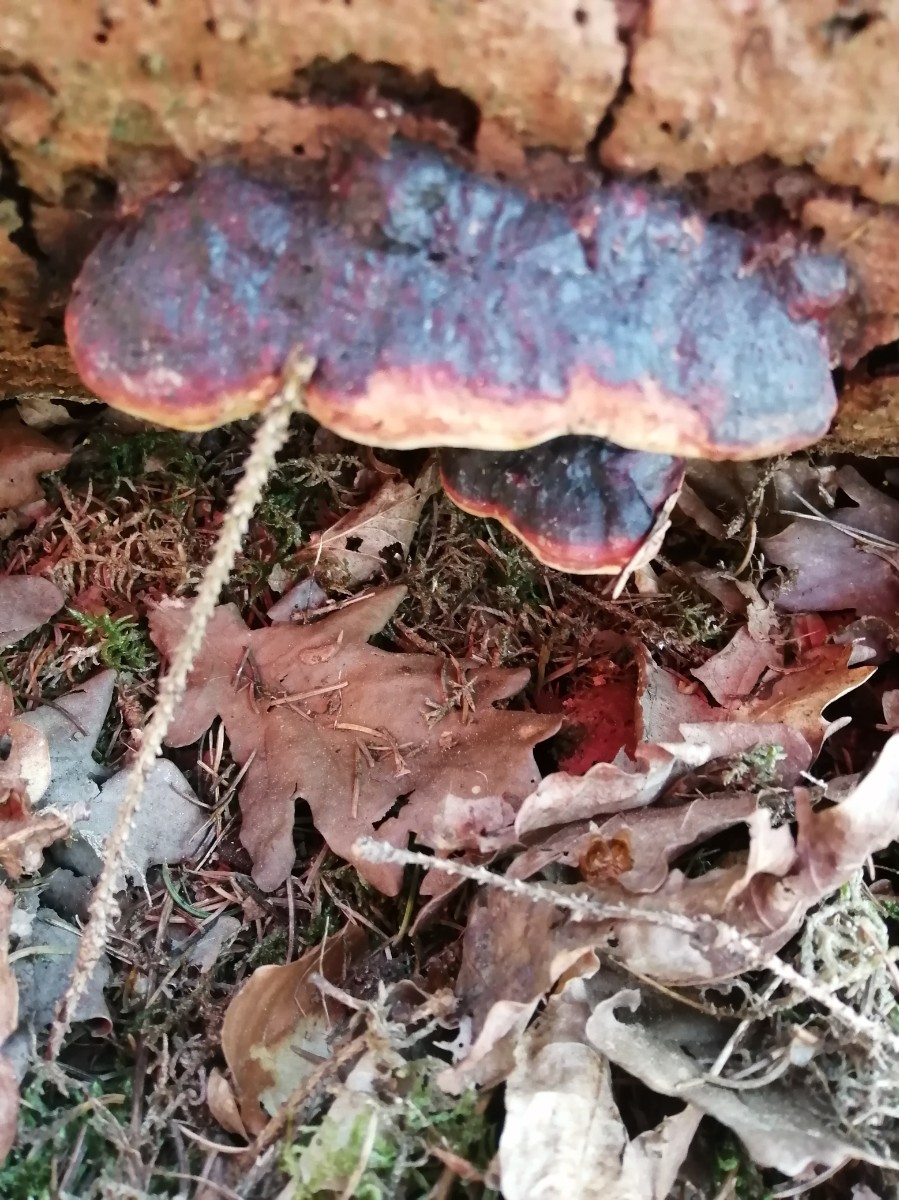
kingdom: Fungi
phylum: Basidiomycota
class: Agaricomycetes
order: Polyporales
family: Fomitopsidaceae
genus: Fomitopsis
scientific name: Fomitopsis pinicola
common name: randbæltet hovporesvamp
